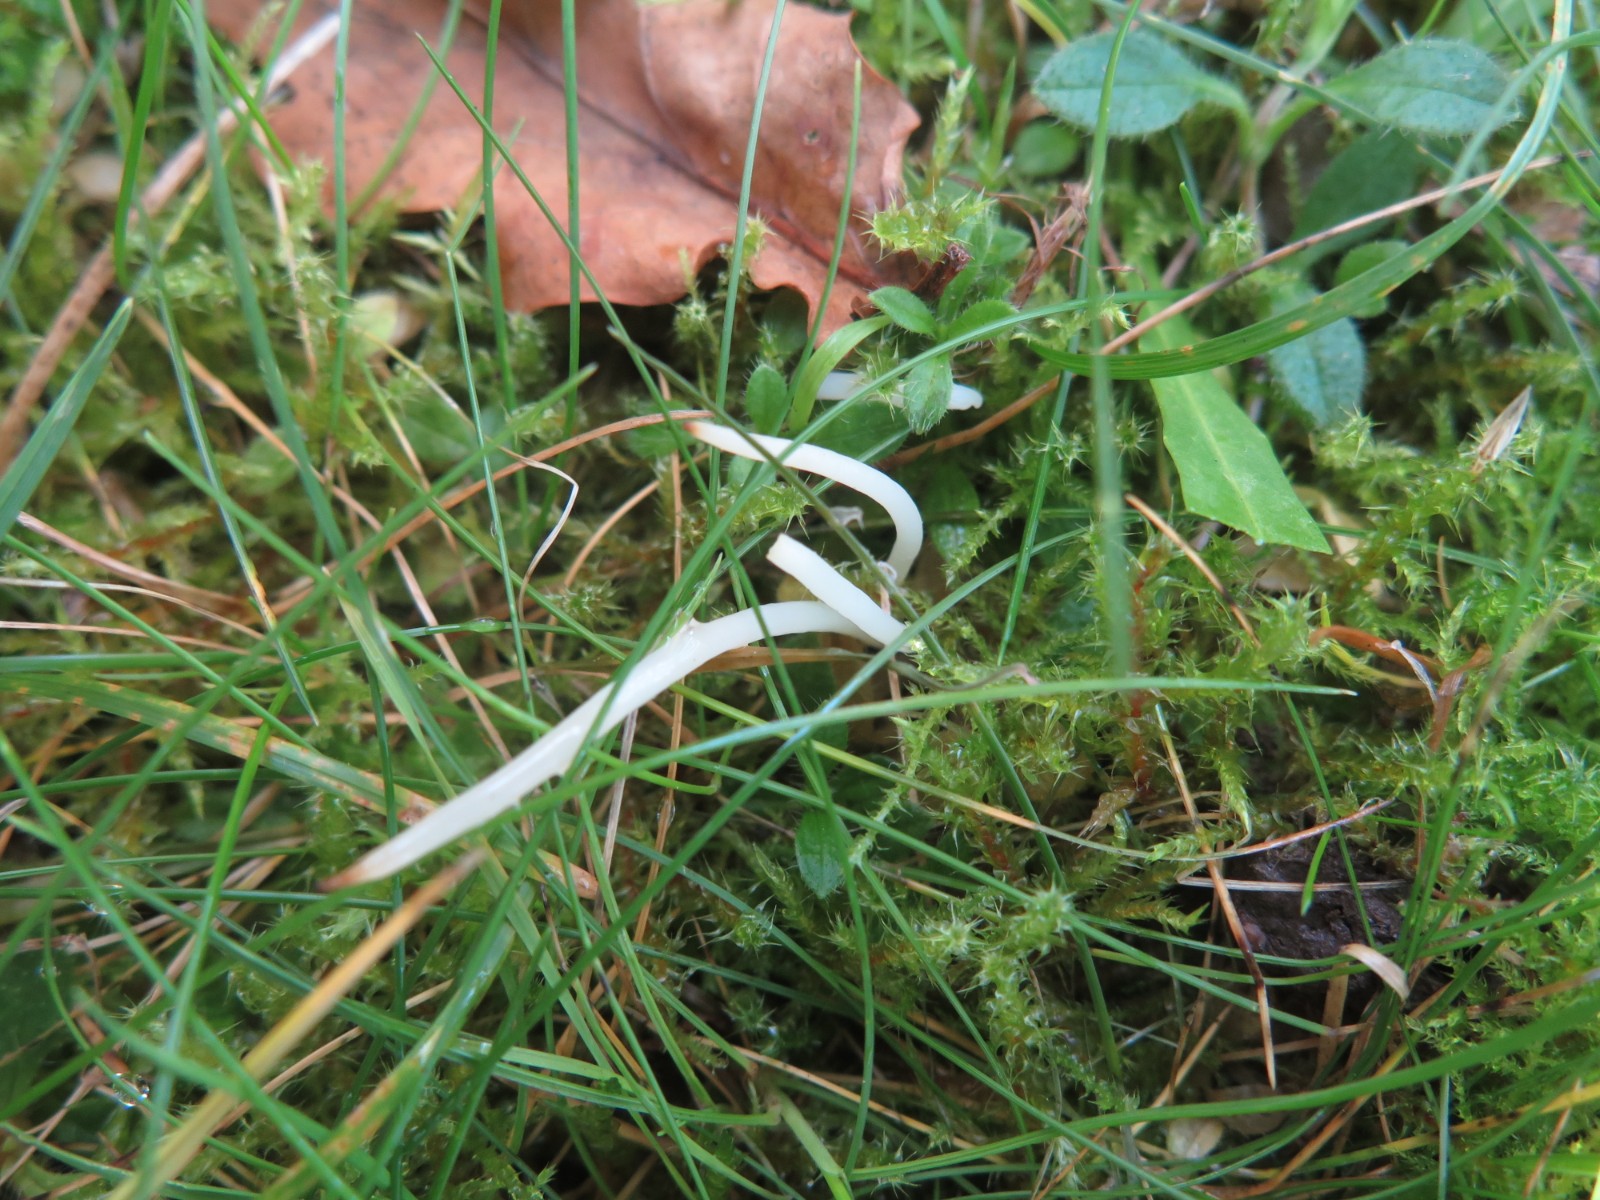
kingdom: Fungi
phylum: Basidiomycota
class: Agaricomycetes
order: Agaricales
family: Clavariaceae
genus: Clavaria
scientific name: Clavaria fragilis
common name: bugtet køllesvamp
